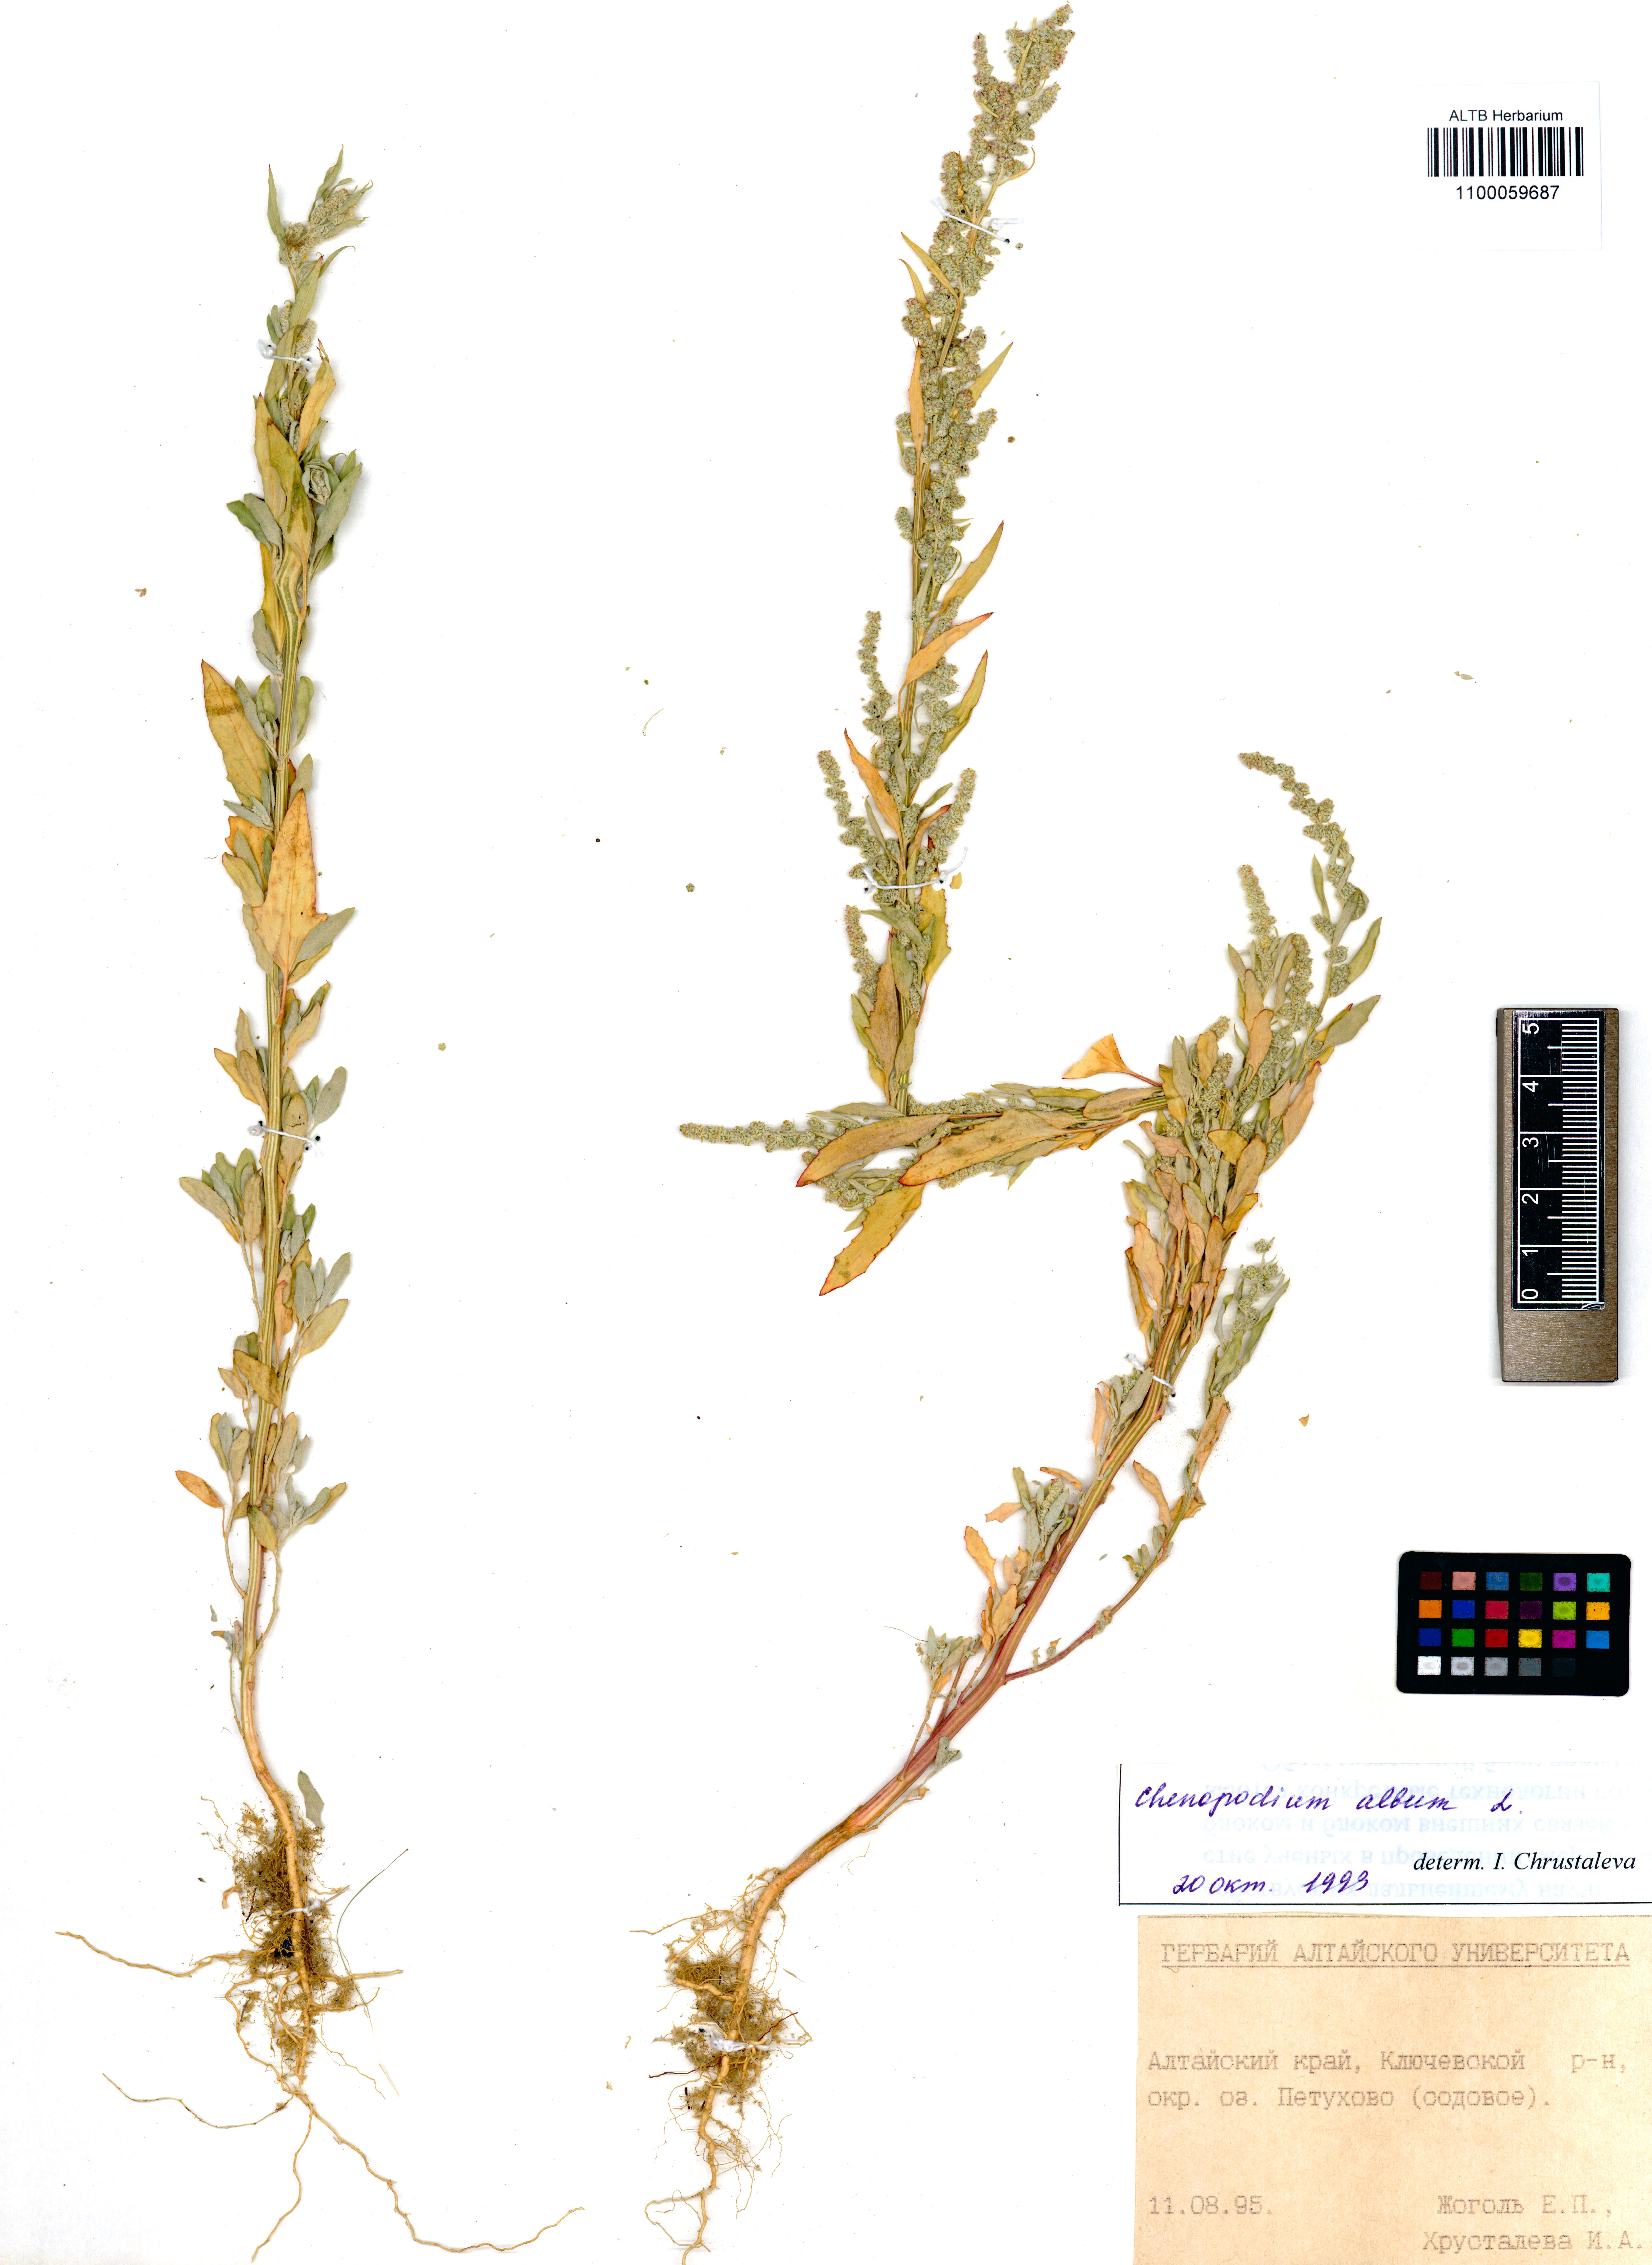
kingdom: Plantae
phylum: Tracheophyta
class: Magnoliopsida
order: Caryophyllales
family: Amaranthaceae
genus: Chenopodium
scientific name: Chenopodium album
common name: Fat-hen
